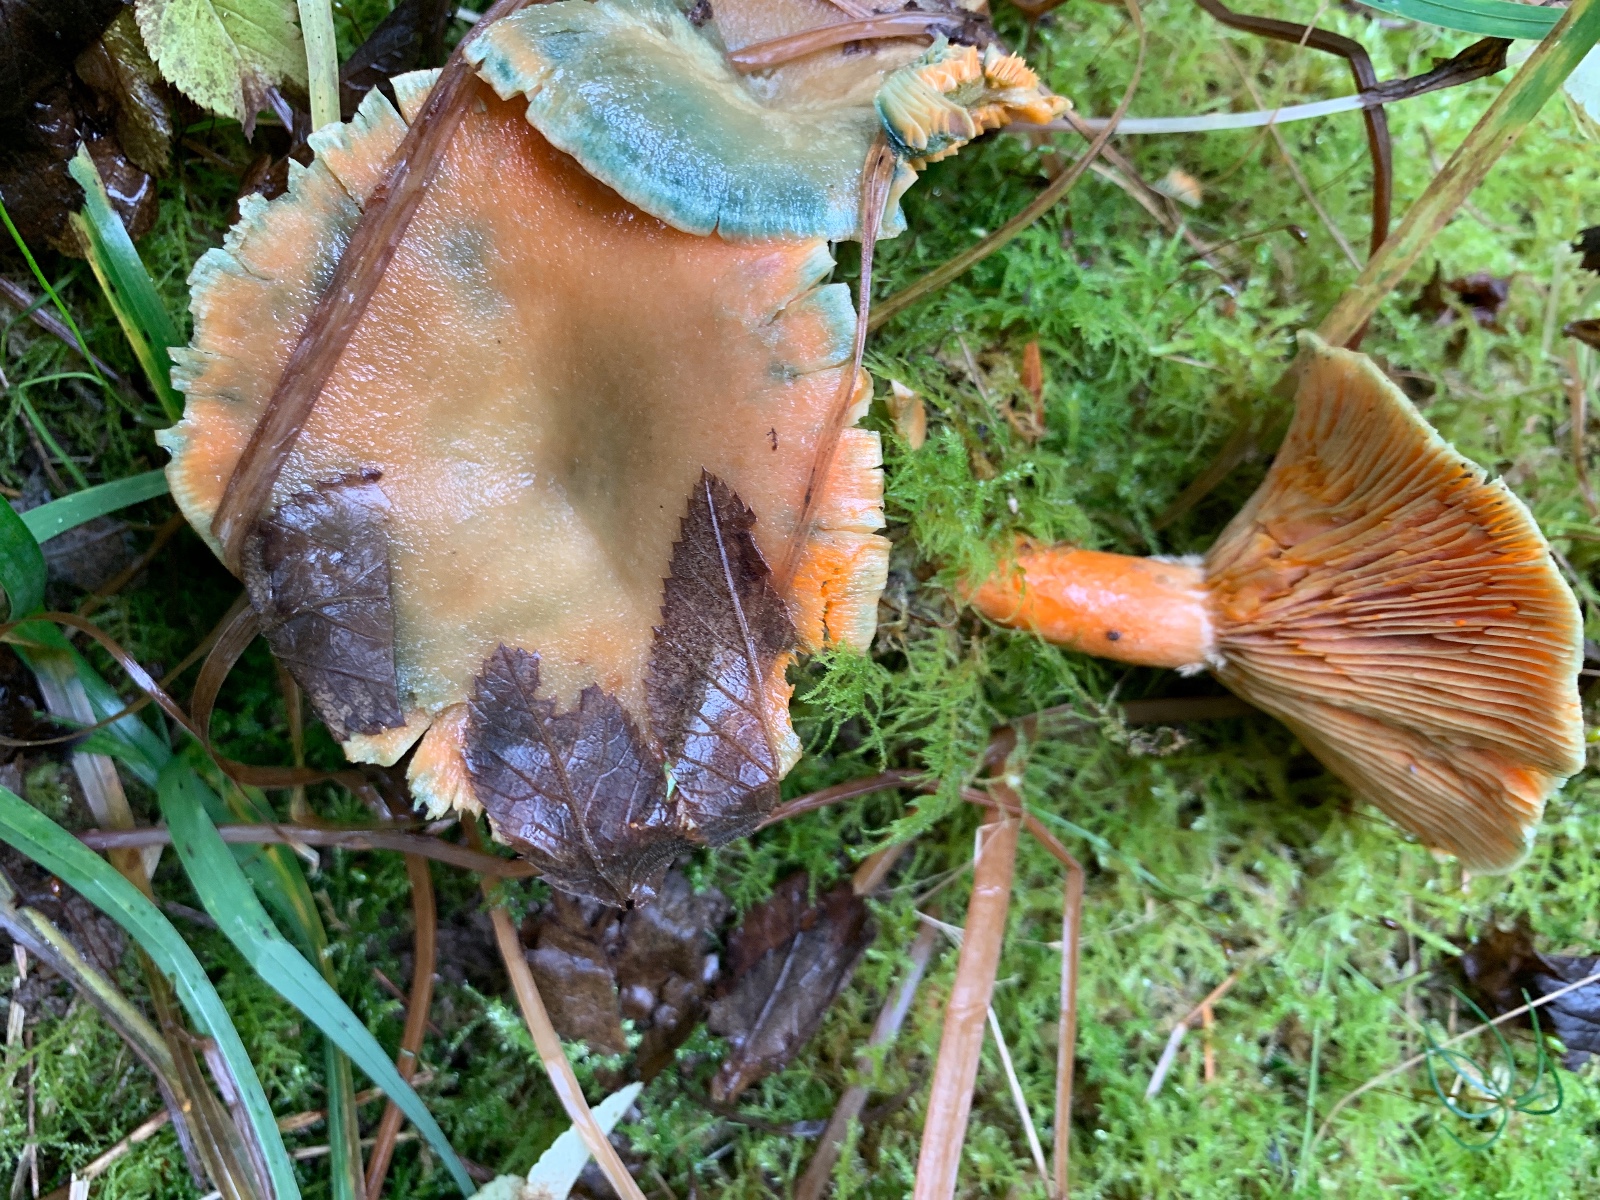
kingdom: Fungi
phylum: Basidiomycota
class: Agaricomycetes
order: Russulales
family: Russulaceae
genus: Lactarius
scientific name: Lactarius deterrimus
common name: gran-mælkehat
